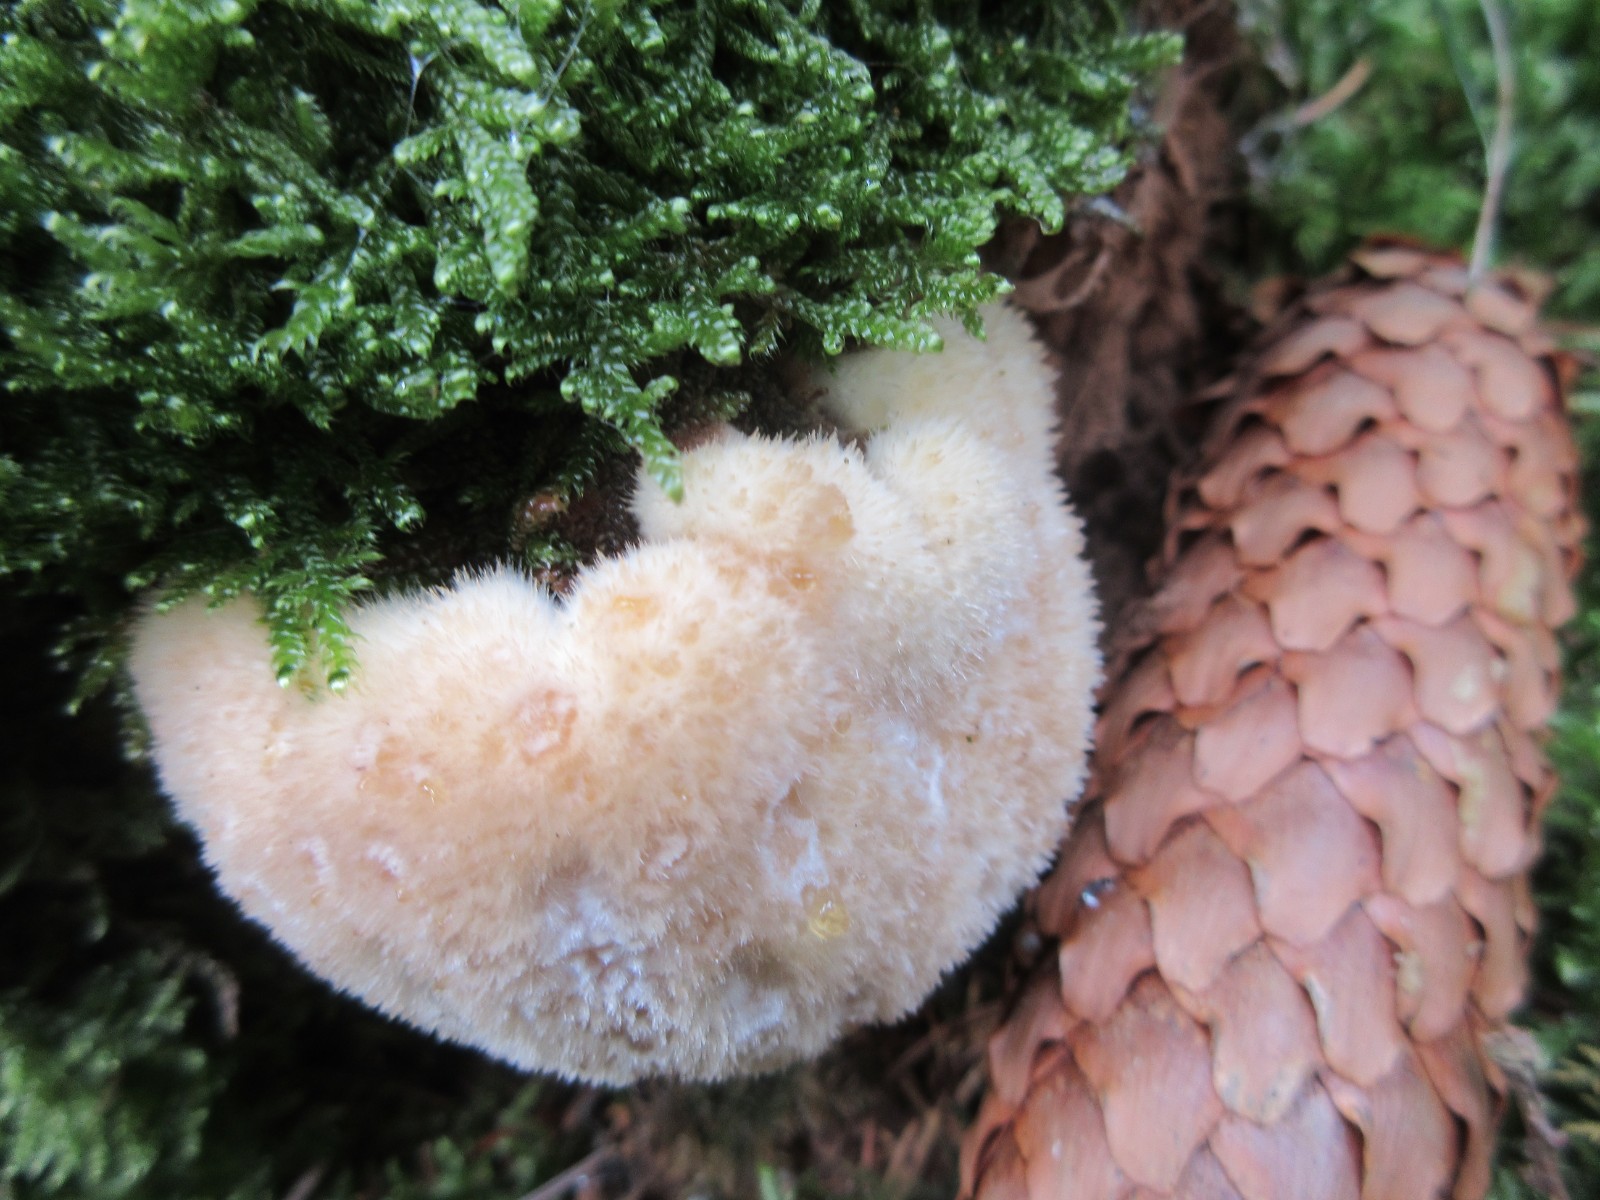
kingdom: Fungi
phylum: Basidiomycota
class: Agaricomycetes
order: Polyporales
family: Dacryobolaceae
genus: Postia
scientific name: Postia ptychogaster
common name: støvende kødporesvamp
